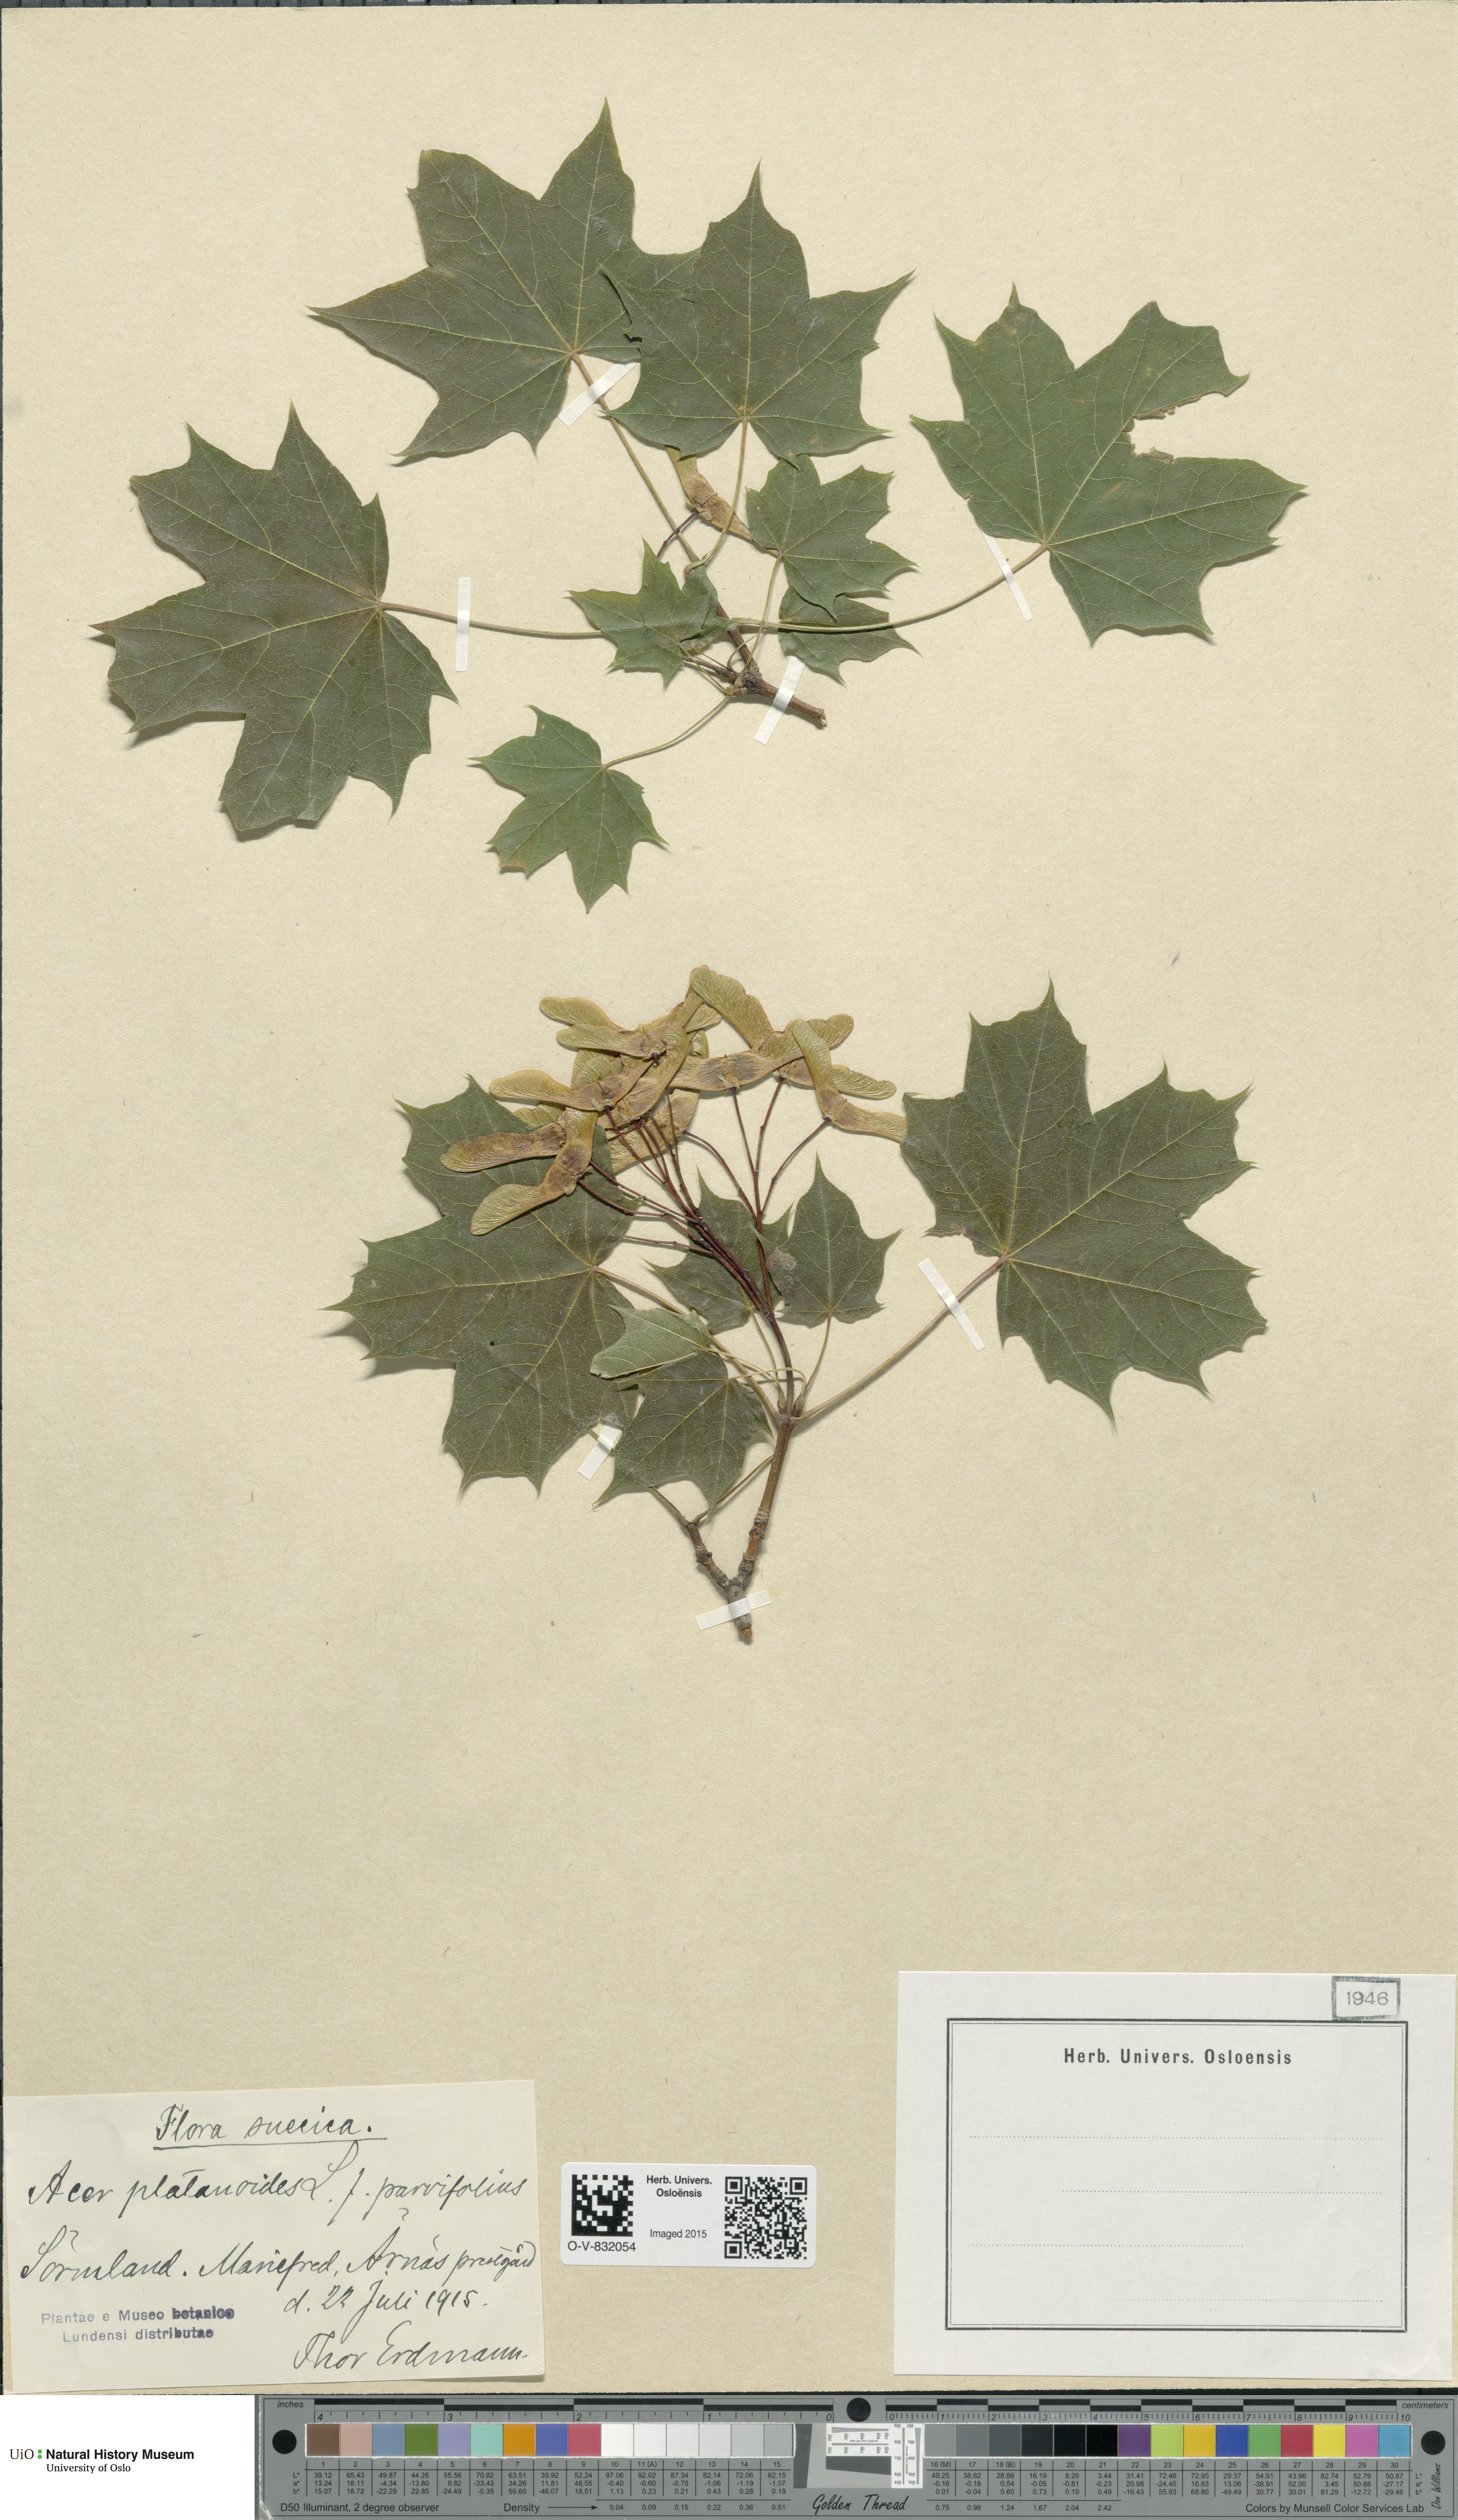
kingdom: Plantae
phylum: Tracheophyta
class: Magnoliopsida
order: Sapindales
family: Sapindaceae
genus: Acer
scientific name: Acer platanoides
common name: Norway maple
